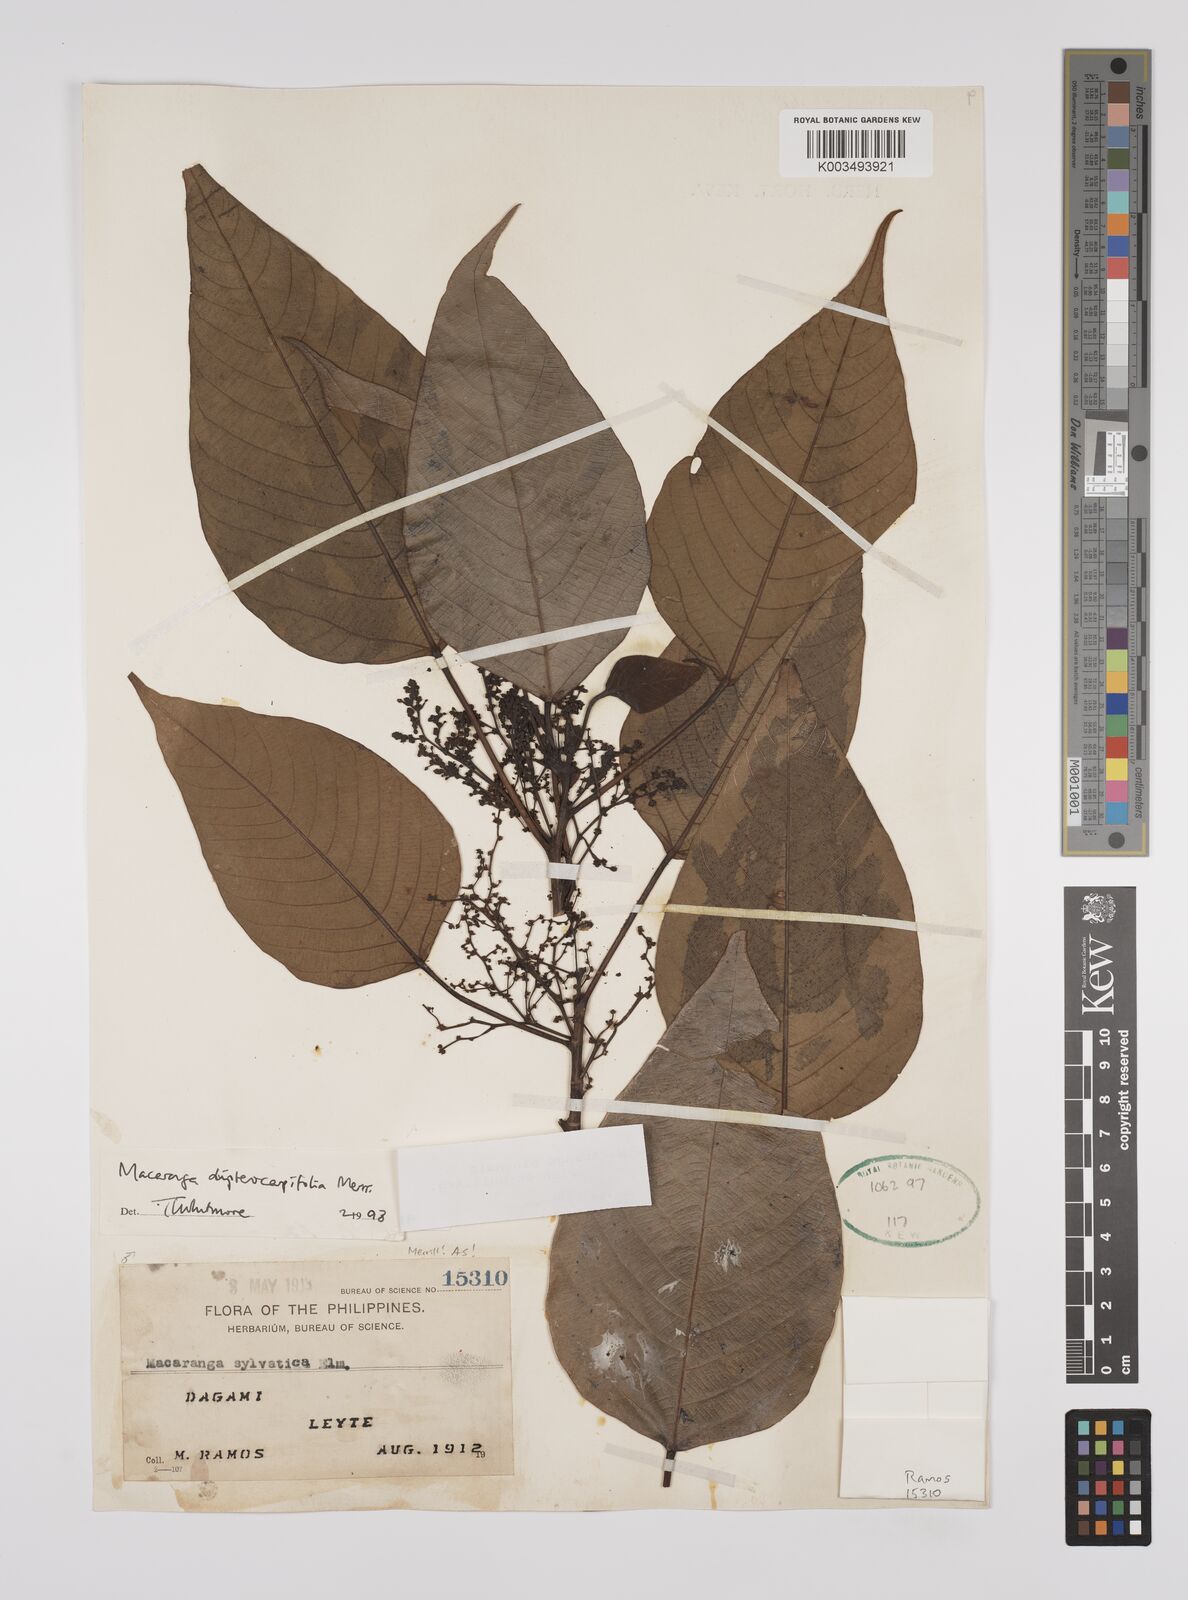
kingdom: Plantae
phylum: Tracheophyta
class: Magnoliopsida
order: Malpighiales
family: Euphorbiaceae
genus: Macaranga
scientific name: Macaranga sinensis
